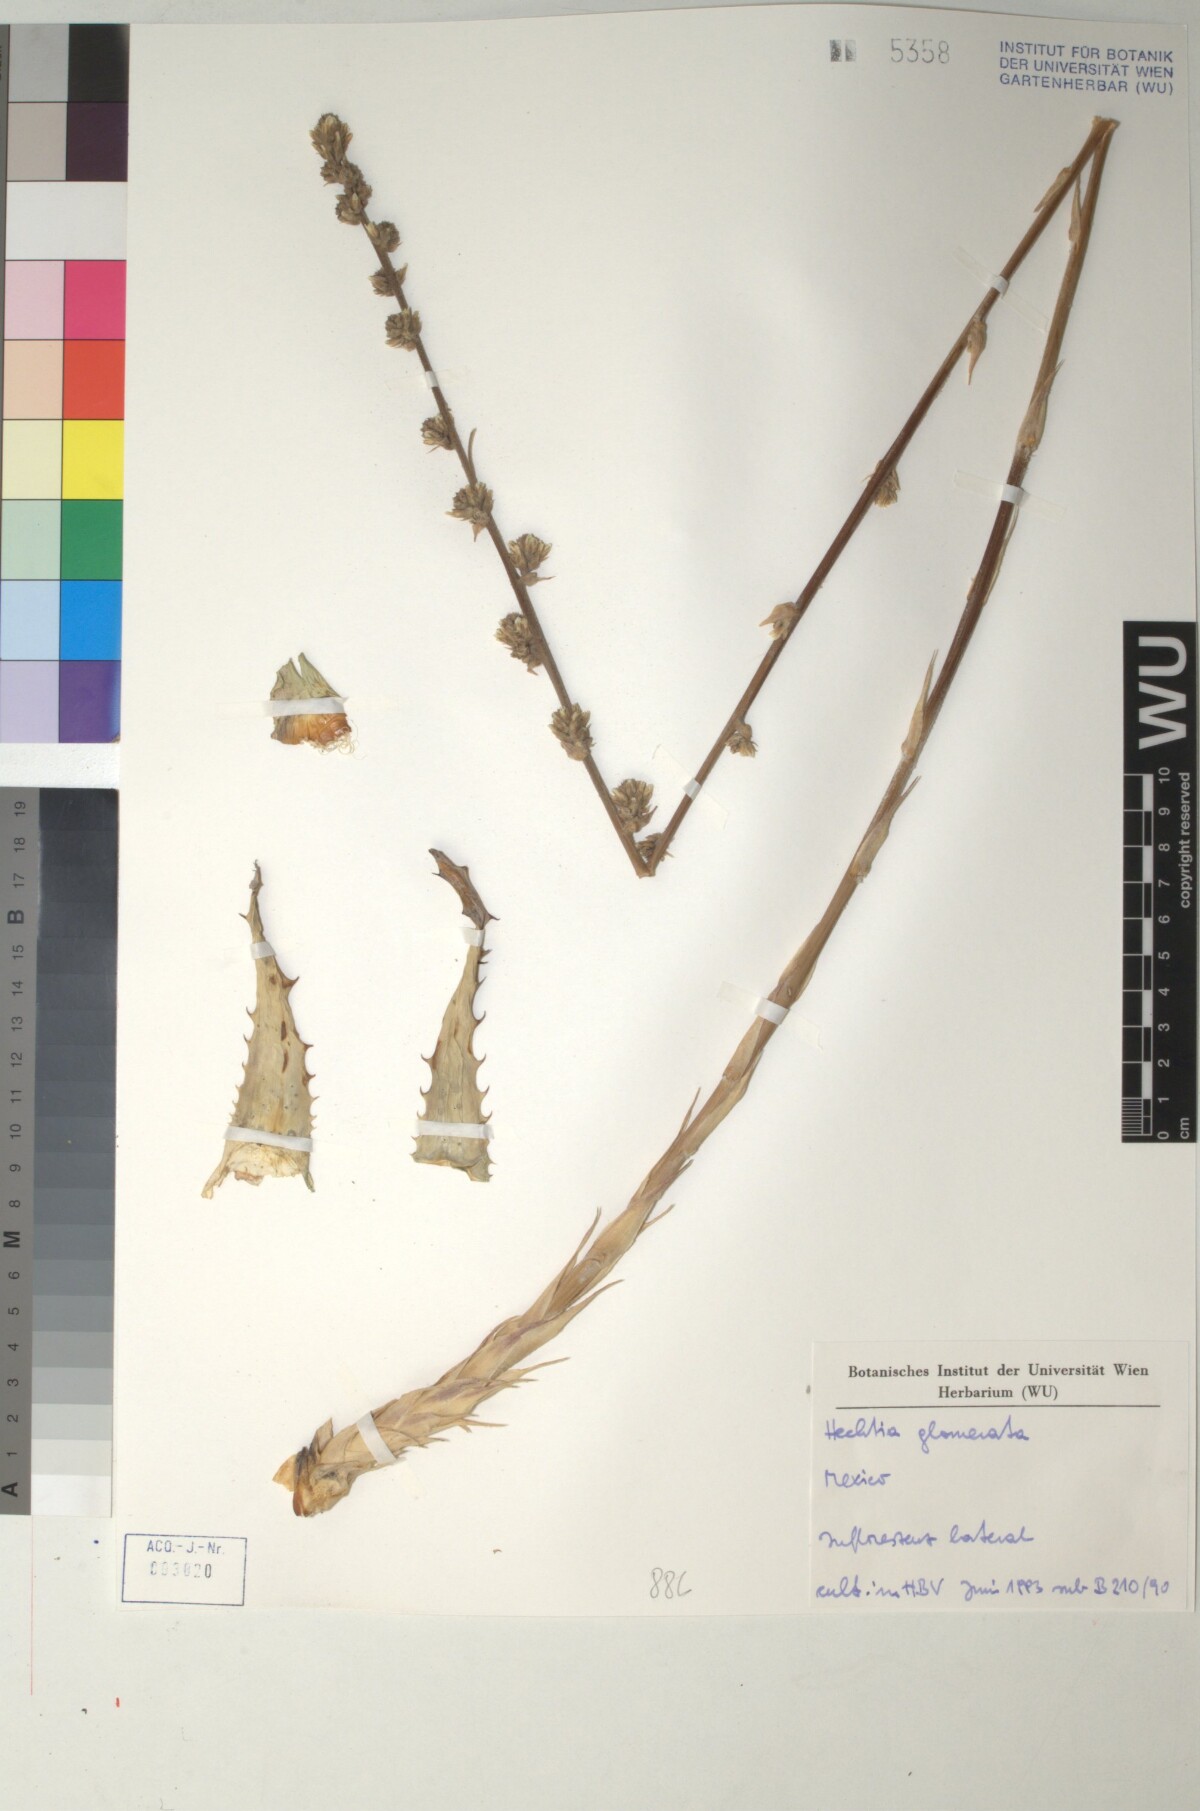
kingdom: Plantae
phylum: Tracheophyta
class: Liliopsida
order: Poales
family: Bromeliaceae
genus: Hechtia
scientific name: Hechtia glomerata
